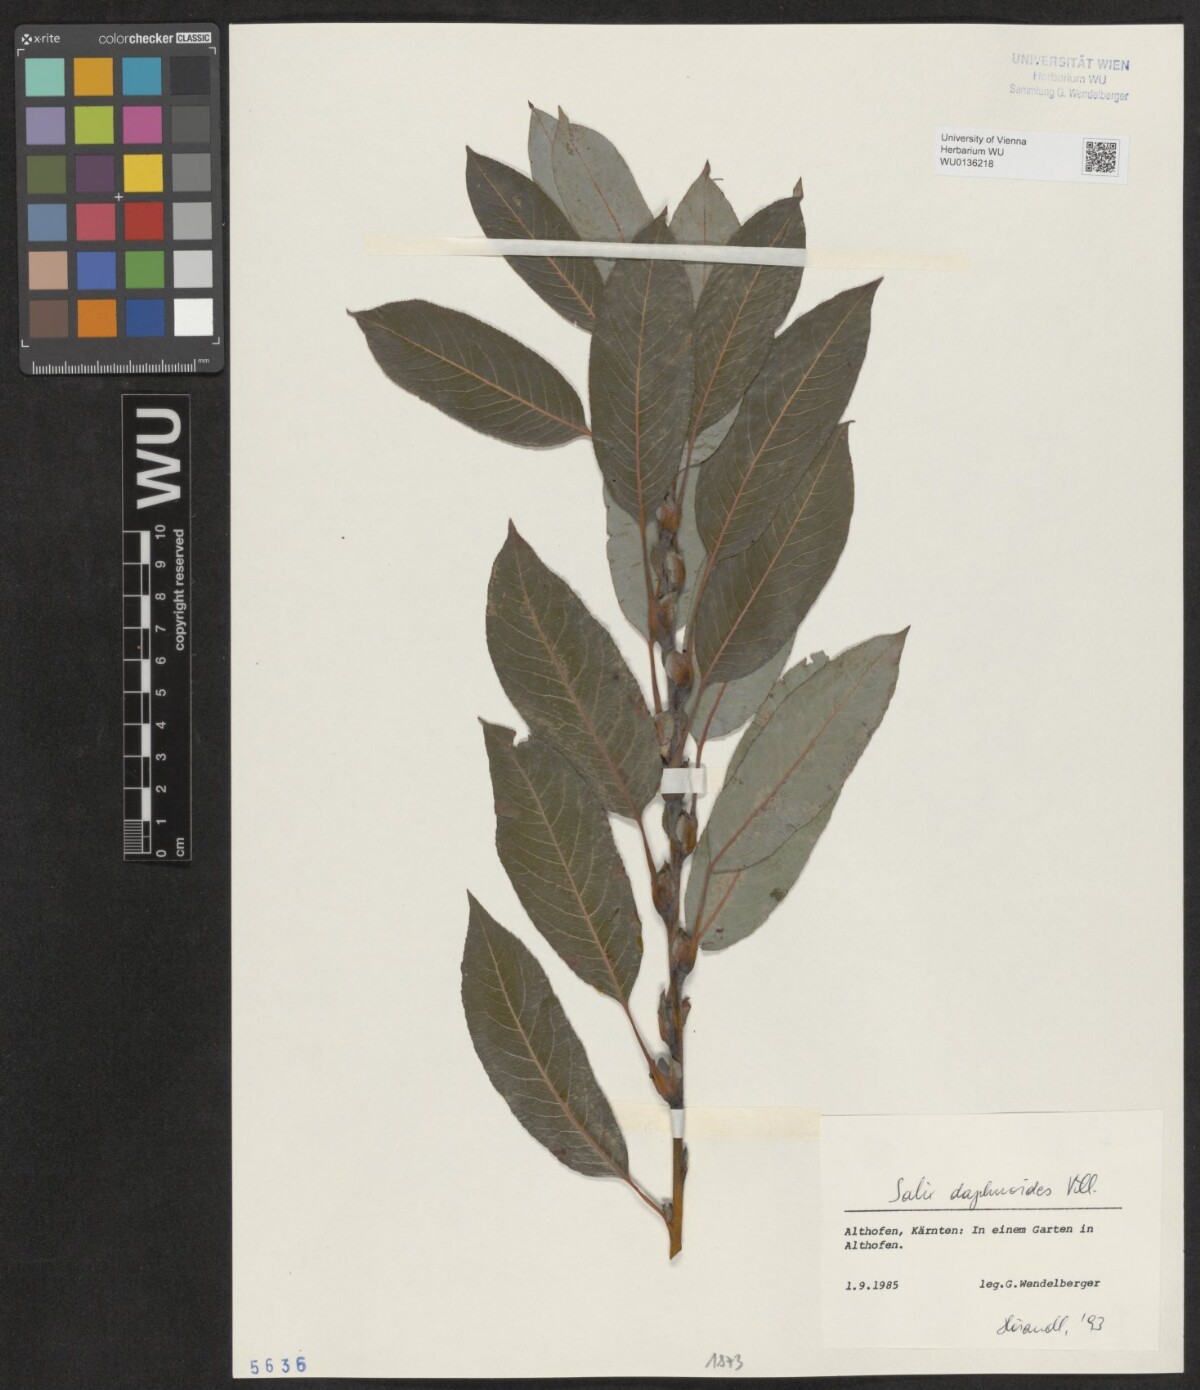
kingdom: Plantae
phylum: Tracheophyta
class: Magnoliopsida
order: Malpighiales
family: Salicaceae
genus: Salix
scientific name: Salix daphnoides
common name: European violet-willow
